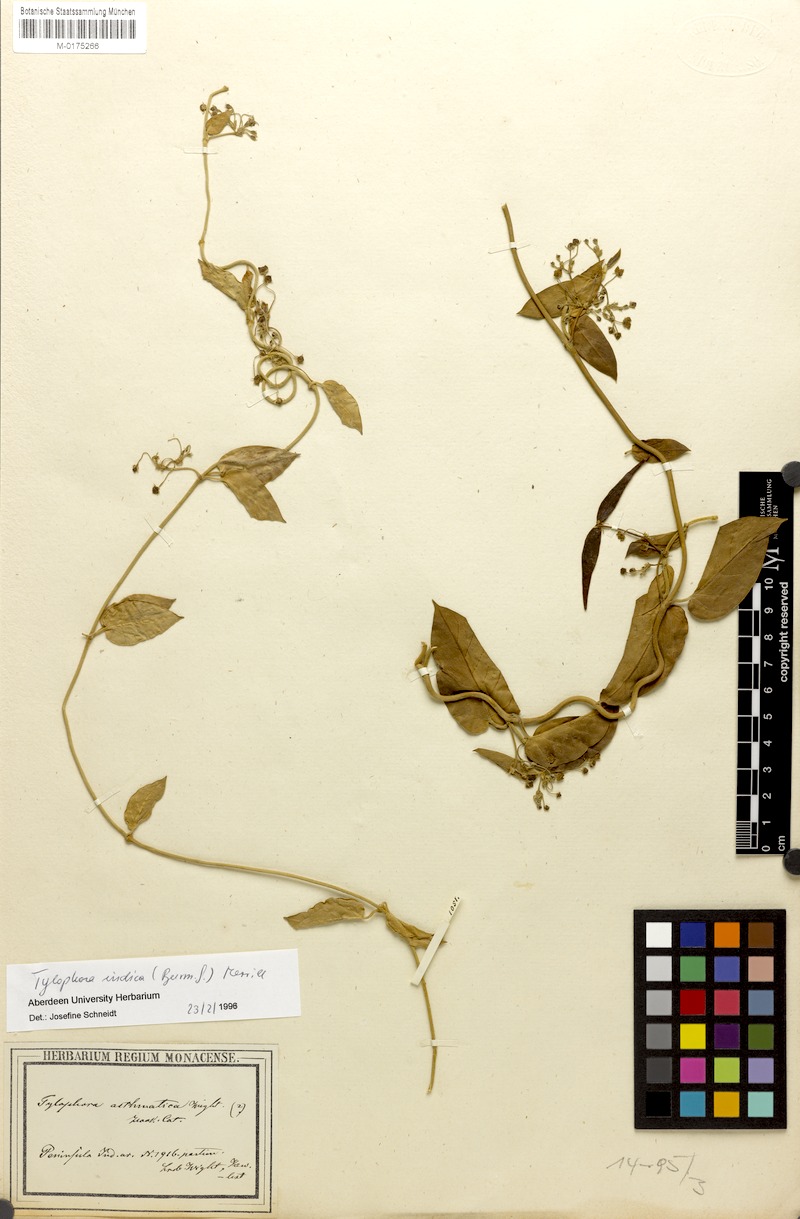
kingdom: Plantae
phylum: Tracheophyta
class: Magnoliopsida
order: Gentianales
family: Apocynaceae
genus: Vincetoxicum
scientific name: Vincetoxicum indicum
